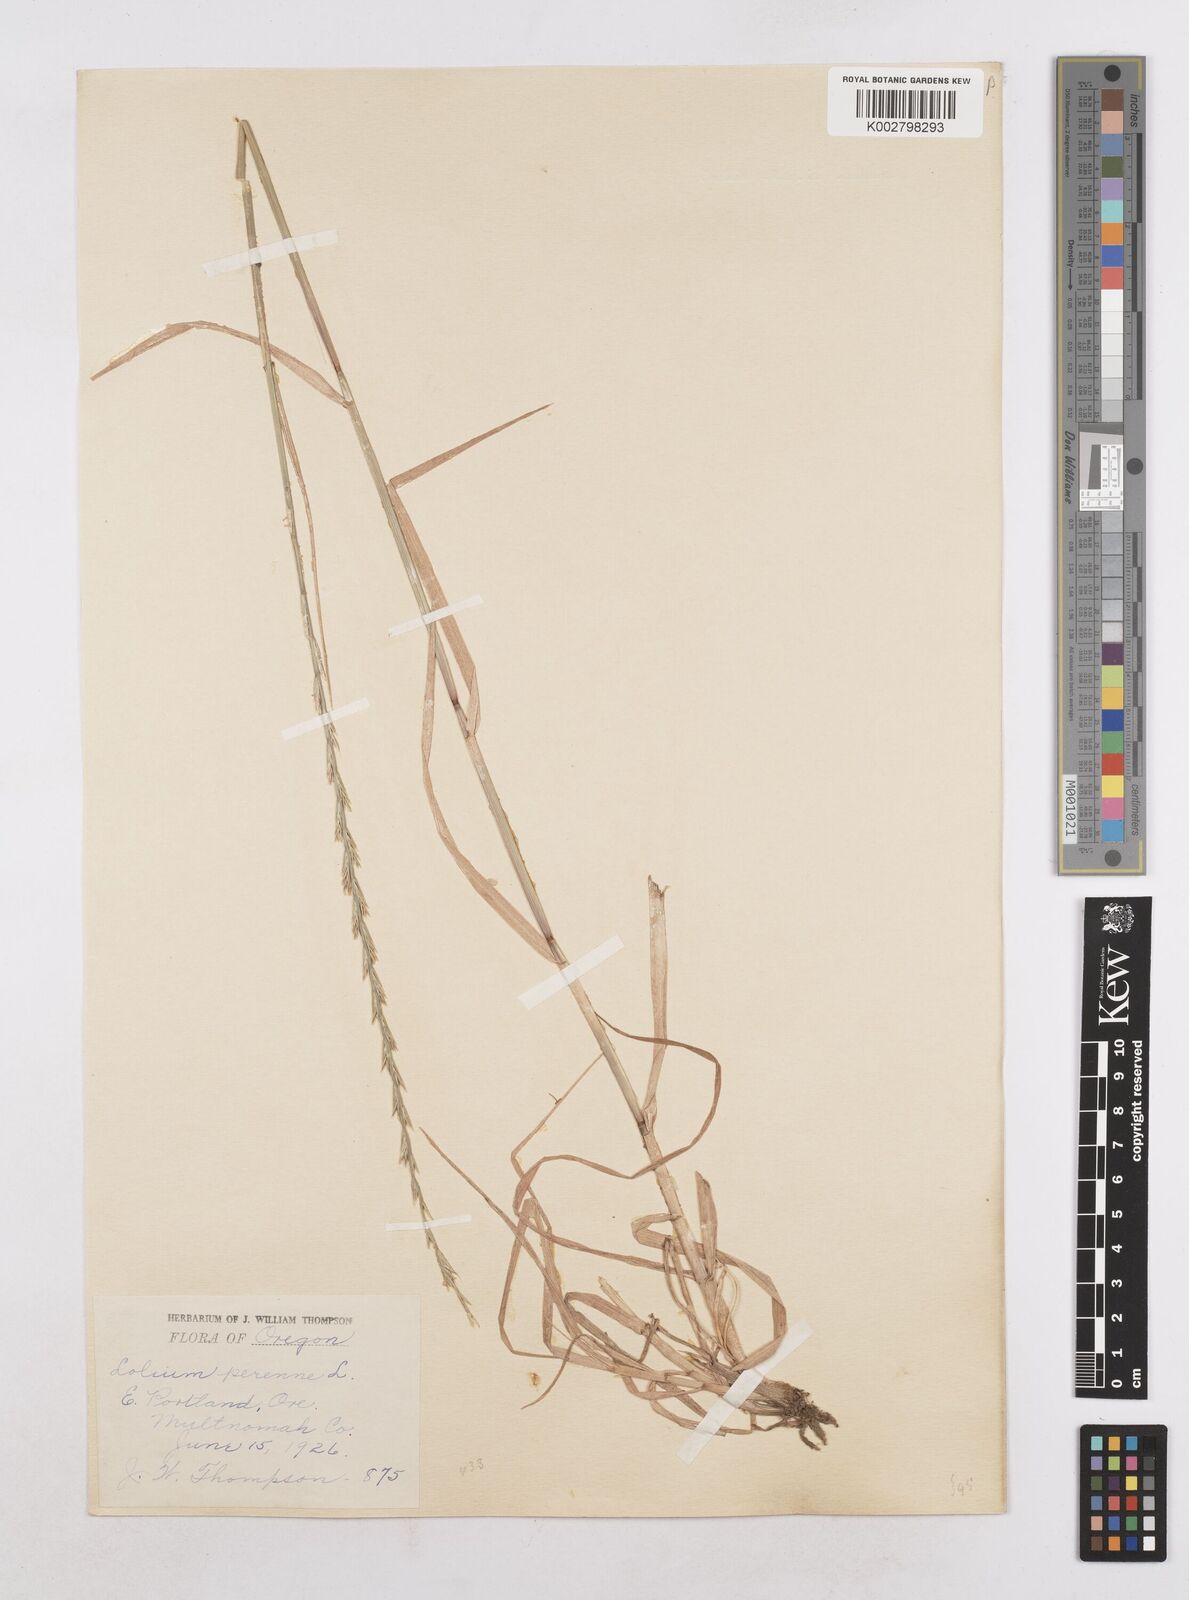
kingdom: Plantae
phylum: Tracheophyta
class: Liliopsida
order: Poales
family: Poaceae
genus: Lolium
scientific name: Lolium perenne
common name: Perennial ryegrass
